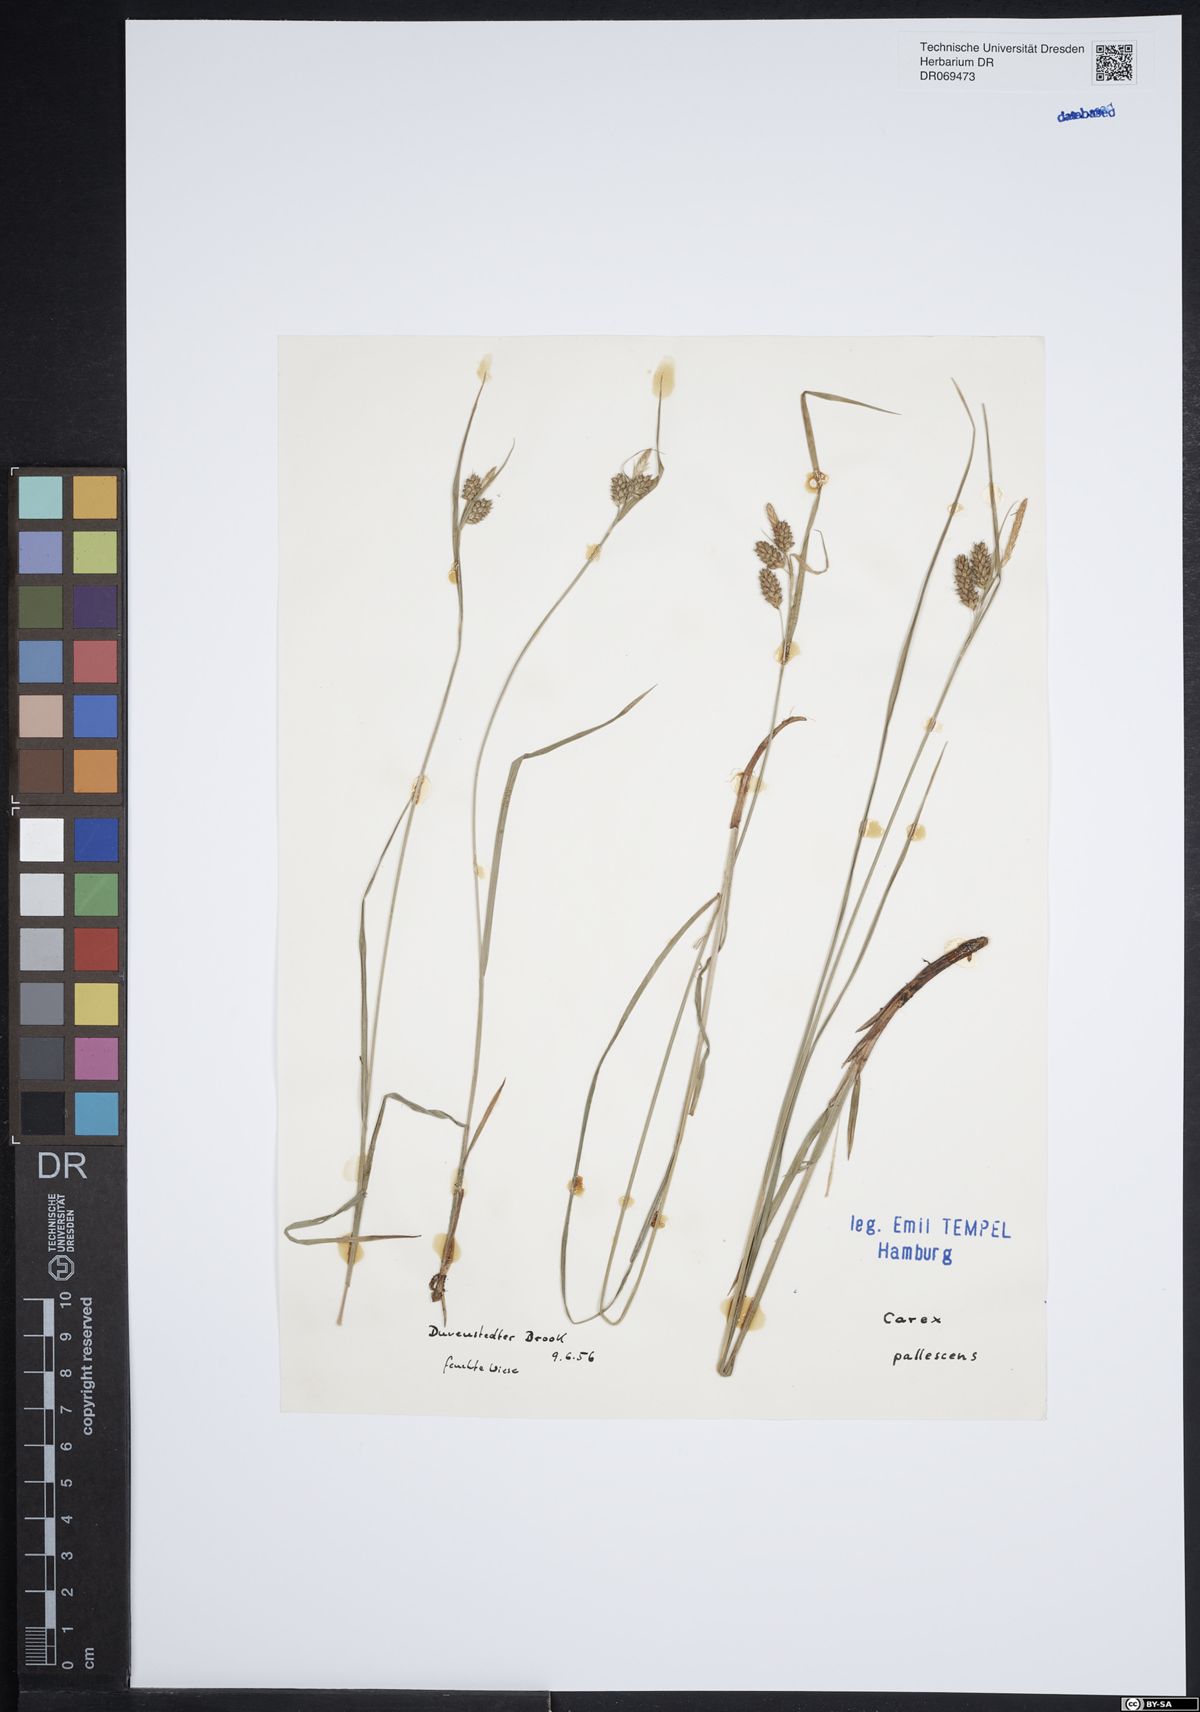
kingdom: Plantae
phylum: Tracheophyta
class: Liliopsida
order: Poales
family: Cyperaceae
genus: Carex
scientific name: Carex pallescens
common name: Pale sedge
